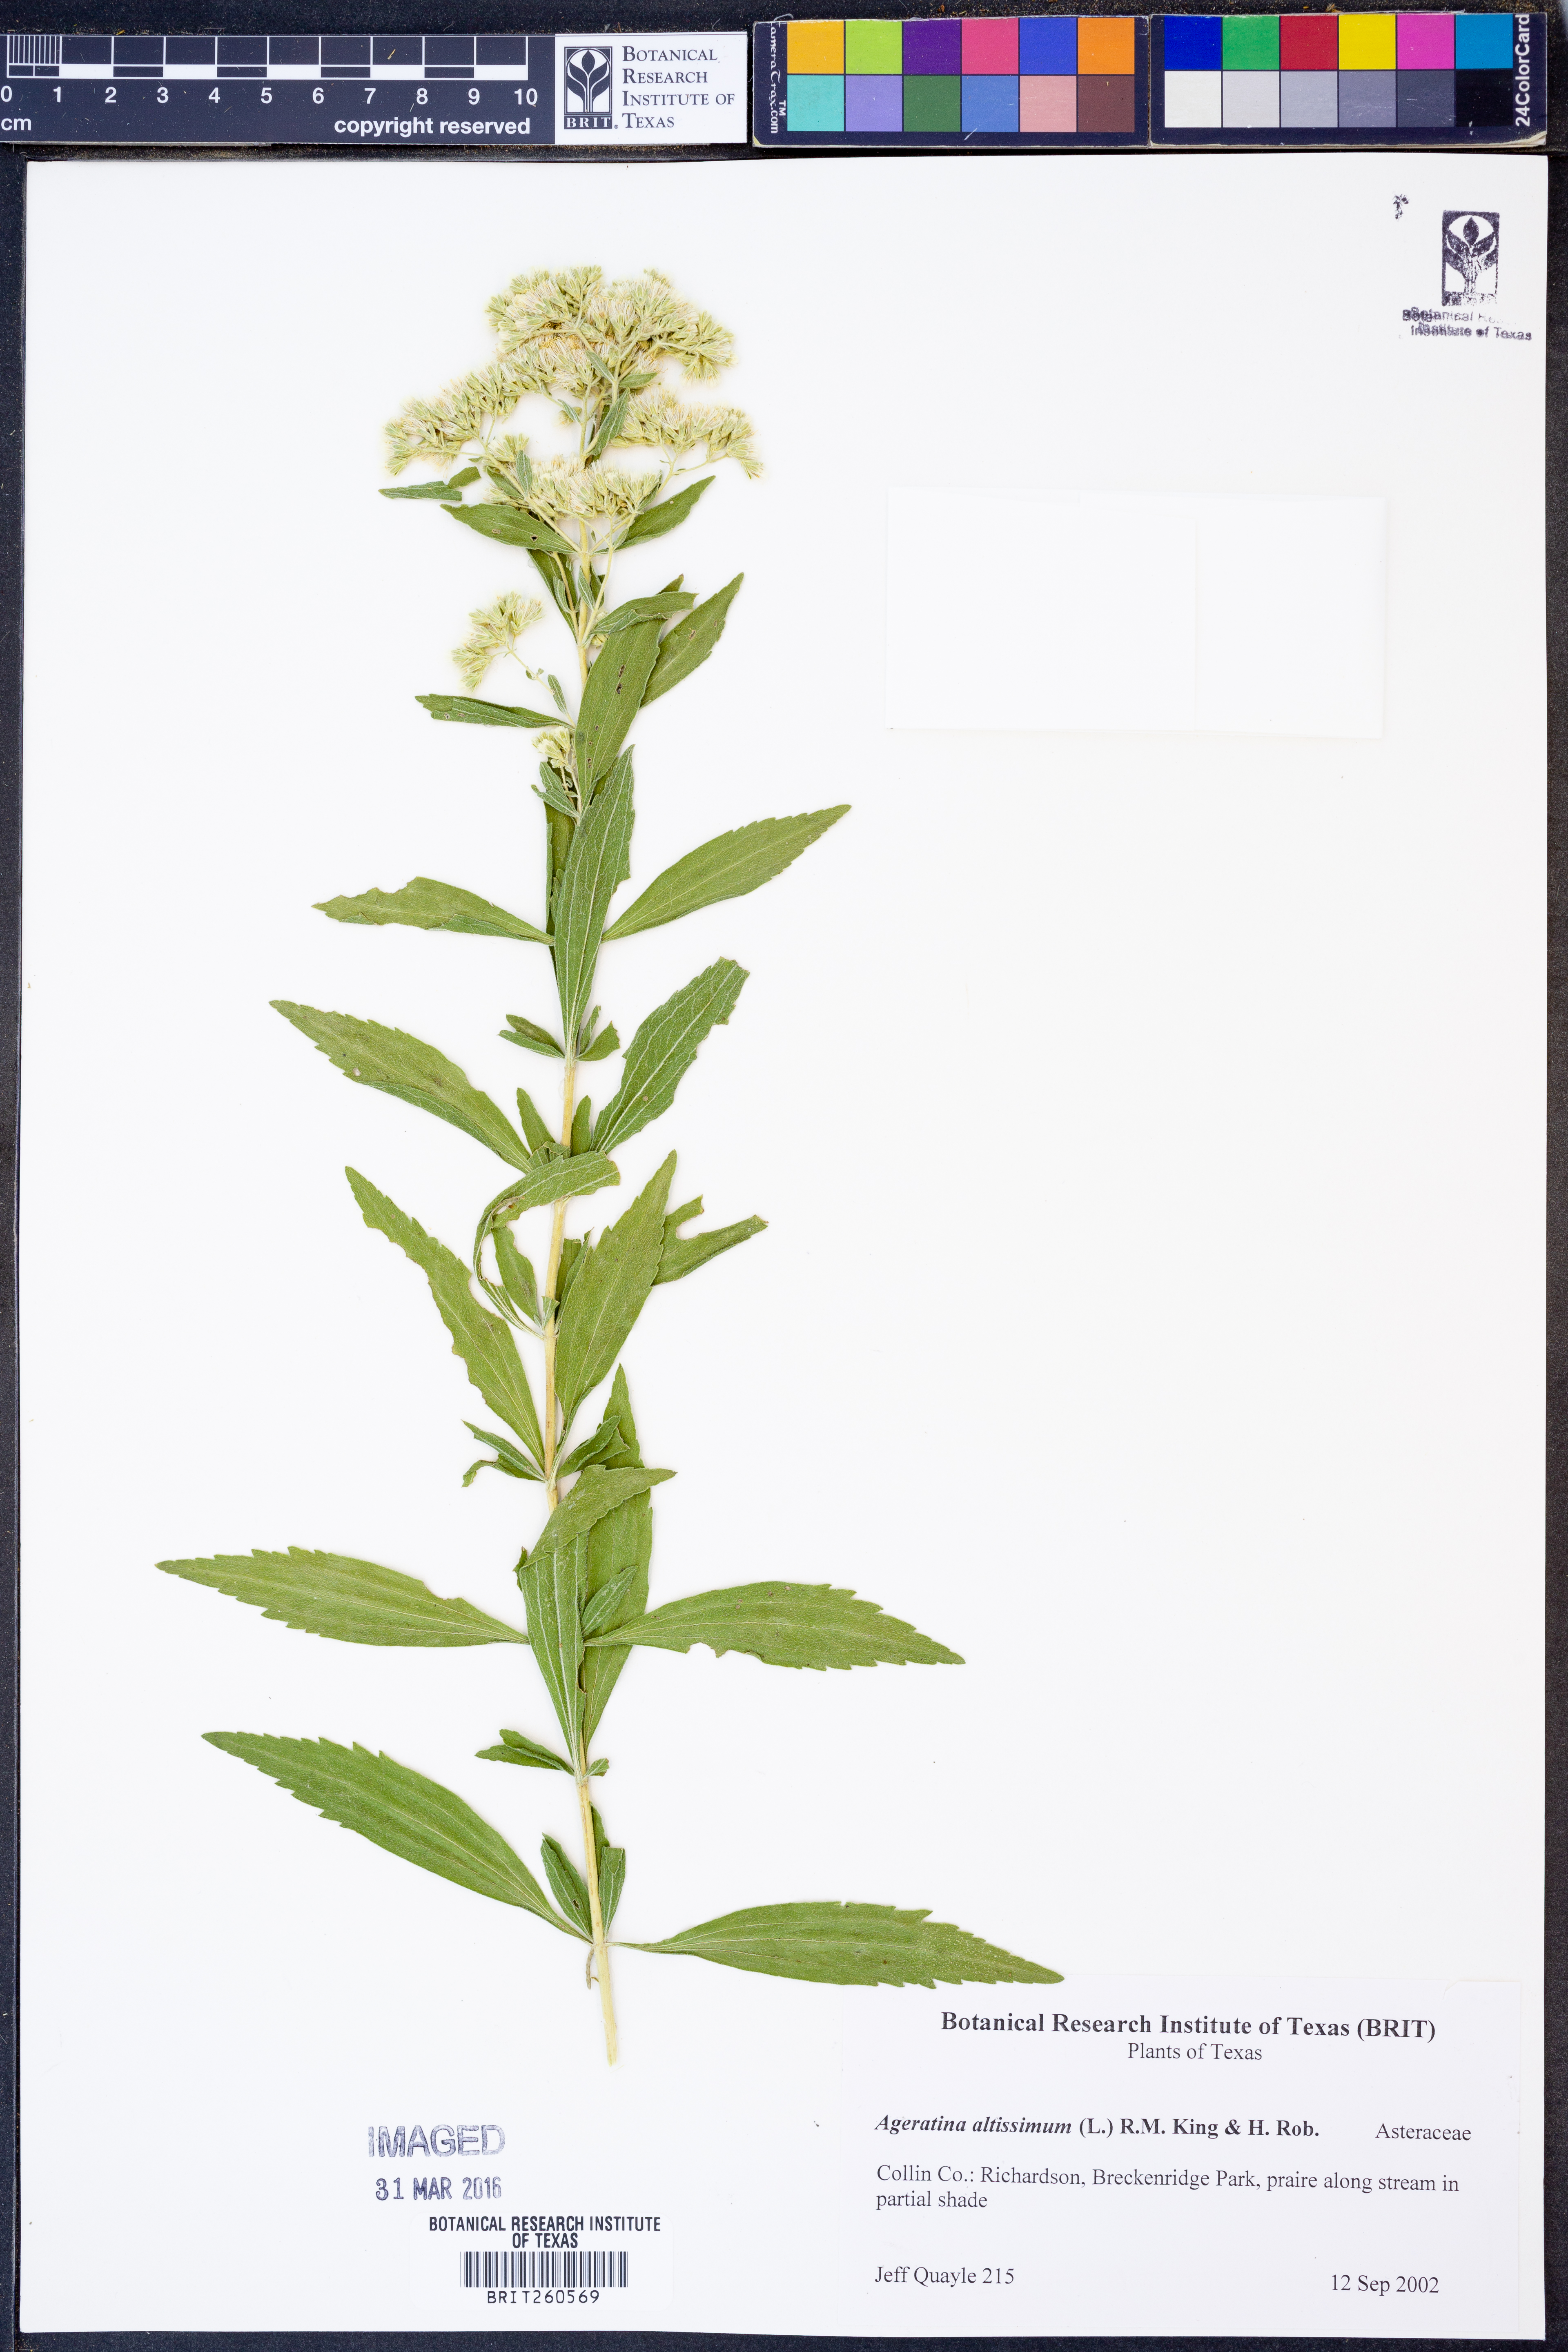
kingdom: Plantae
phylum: Tracheophyta
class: Magnoliopsida
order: Asterales
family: Asteraceae
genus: Ageratina
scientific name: Ageratina altissima
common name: White snakeroot
